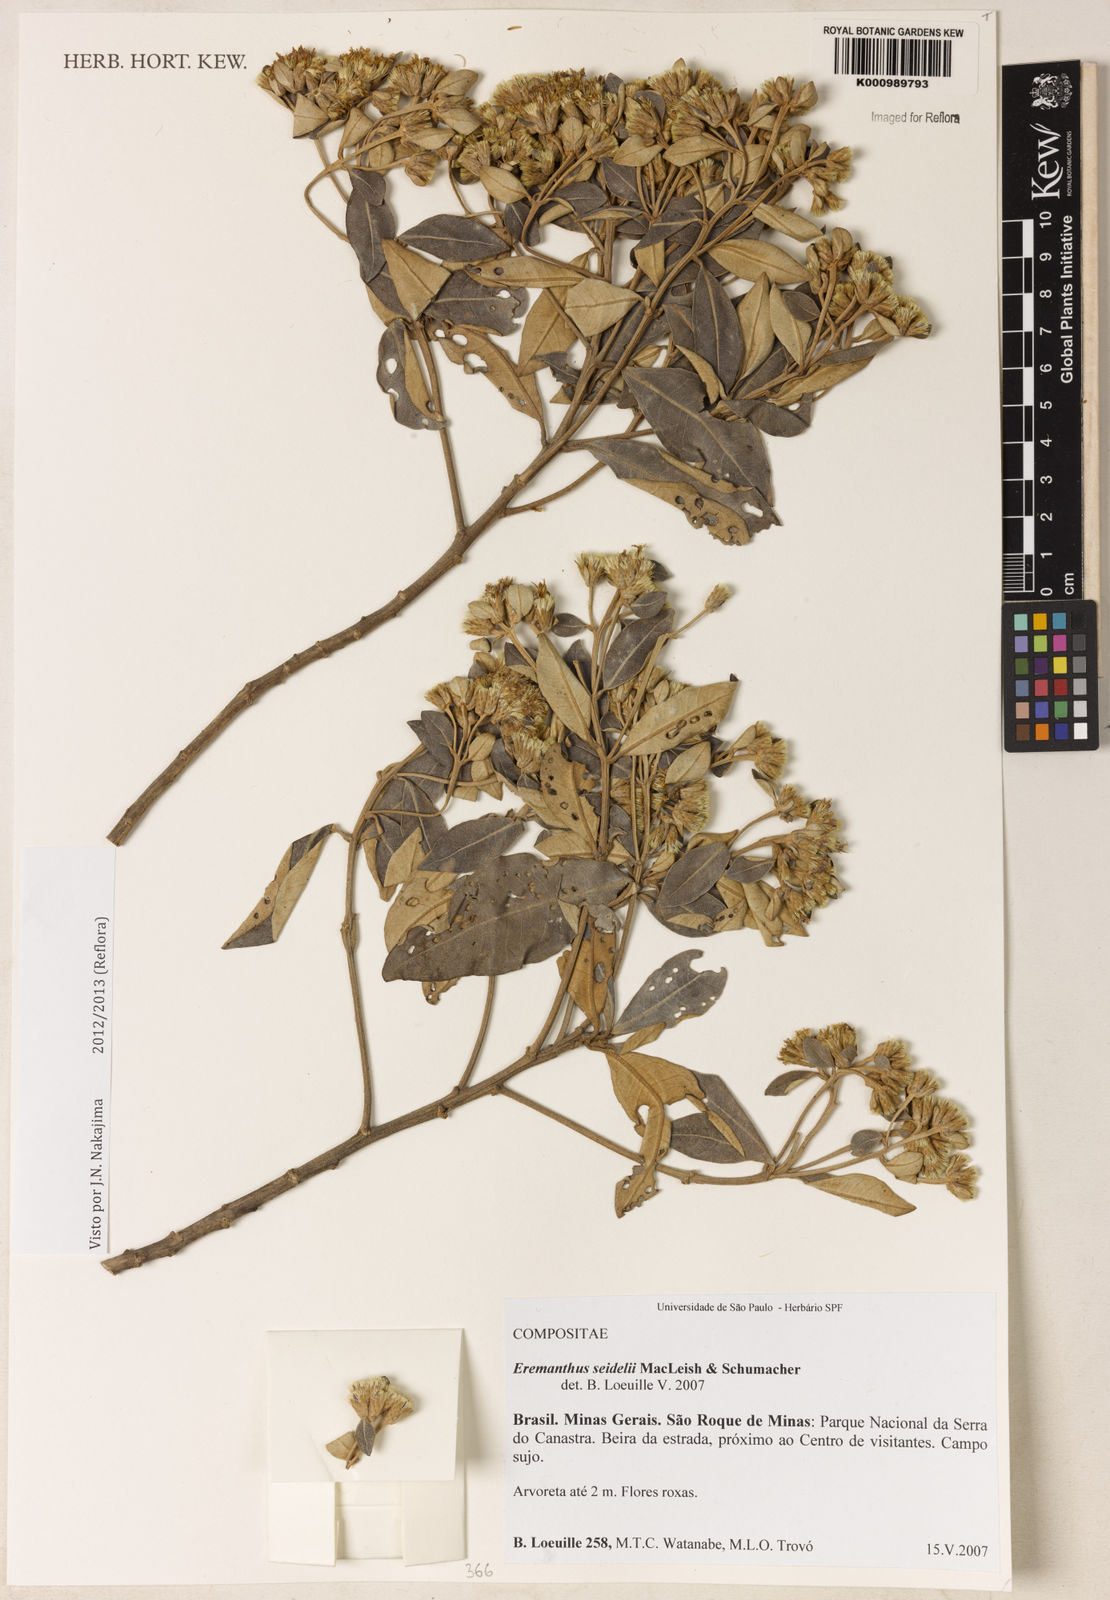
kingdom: Plantae
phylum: Tracheophyta
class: Magnoliopsida
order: Asterales
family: Asteraceae
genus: Eremanthus
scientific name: Eremanthus elaeagnus
